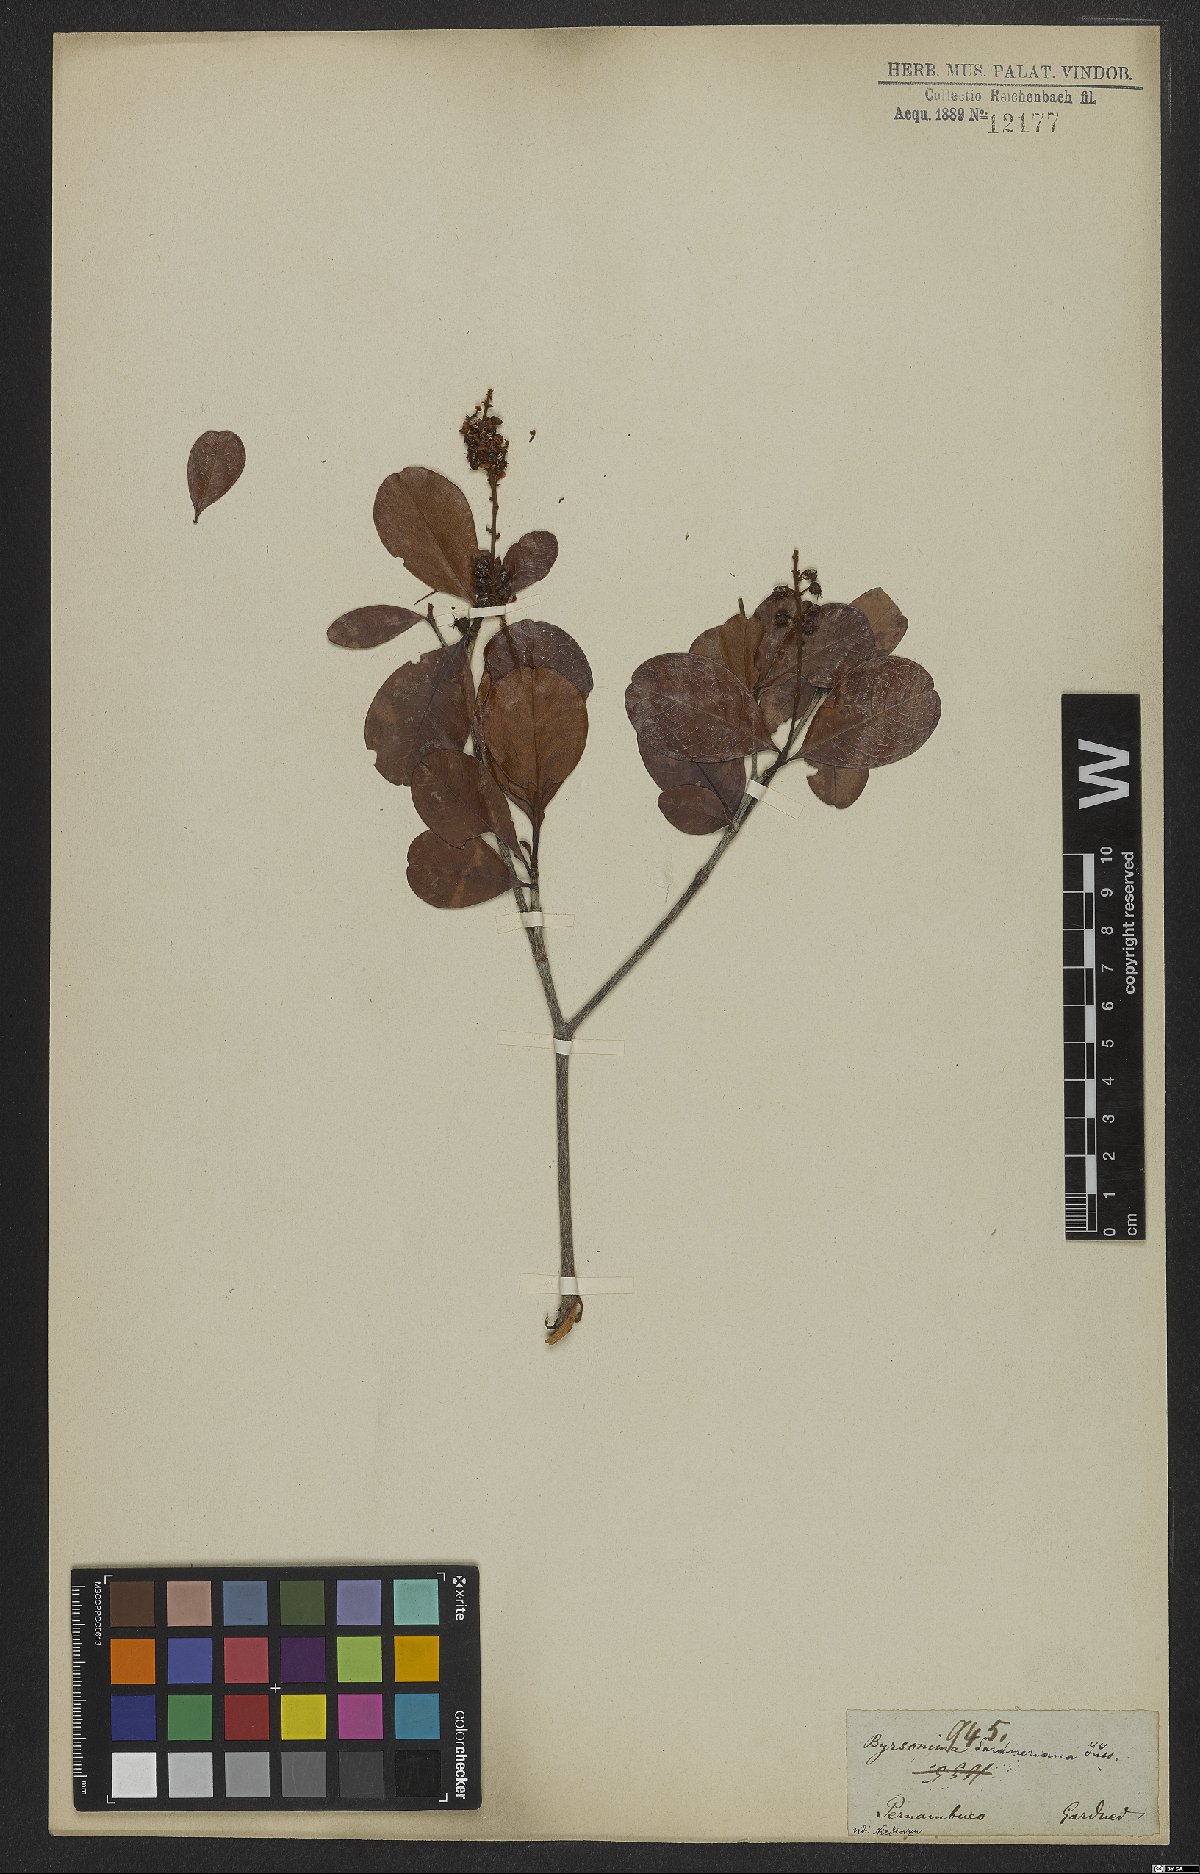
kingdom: Plantae
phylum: Tracheophyta
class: Magnoliopsida
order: Malpighiales
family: Malpighiaceae
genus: Byrsonima
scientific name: Byrsonima gardneriana
